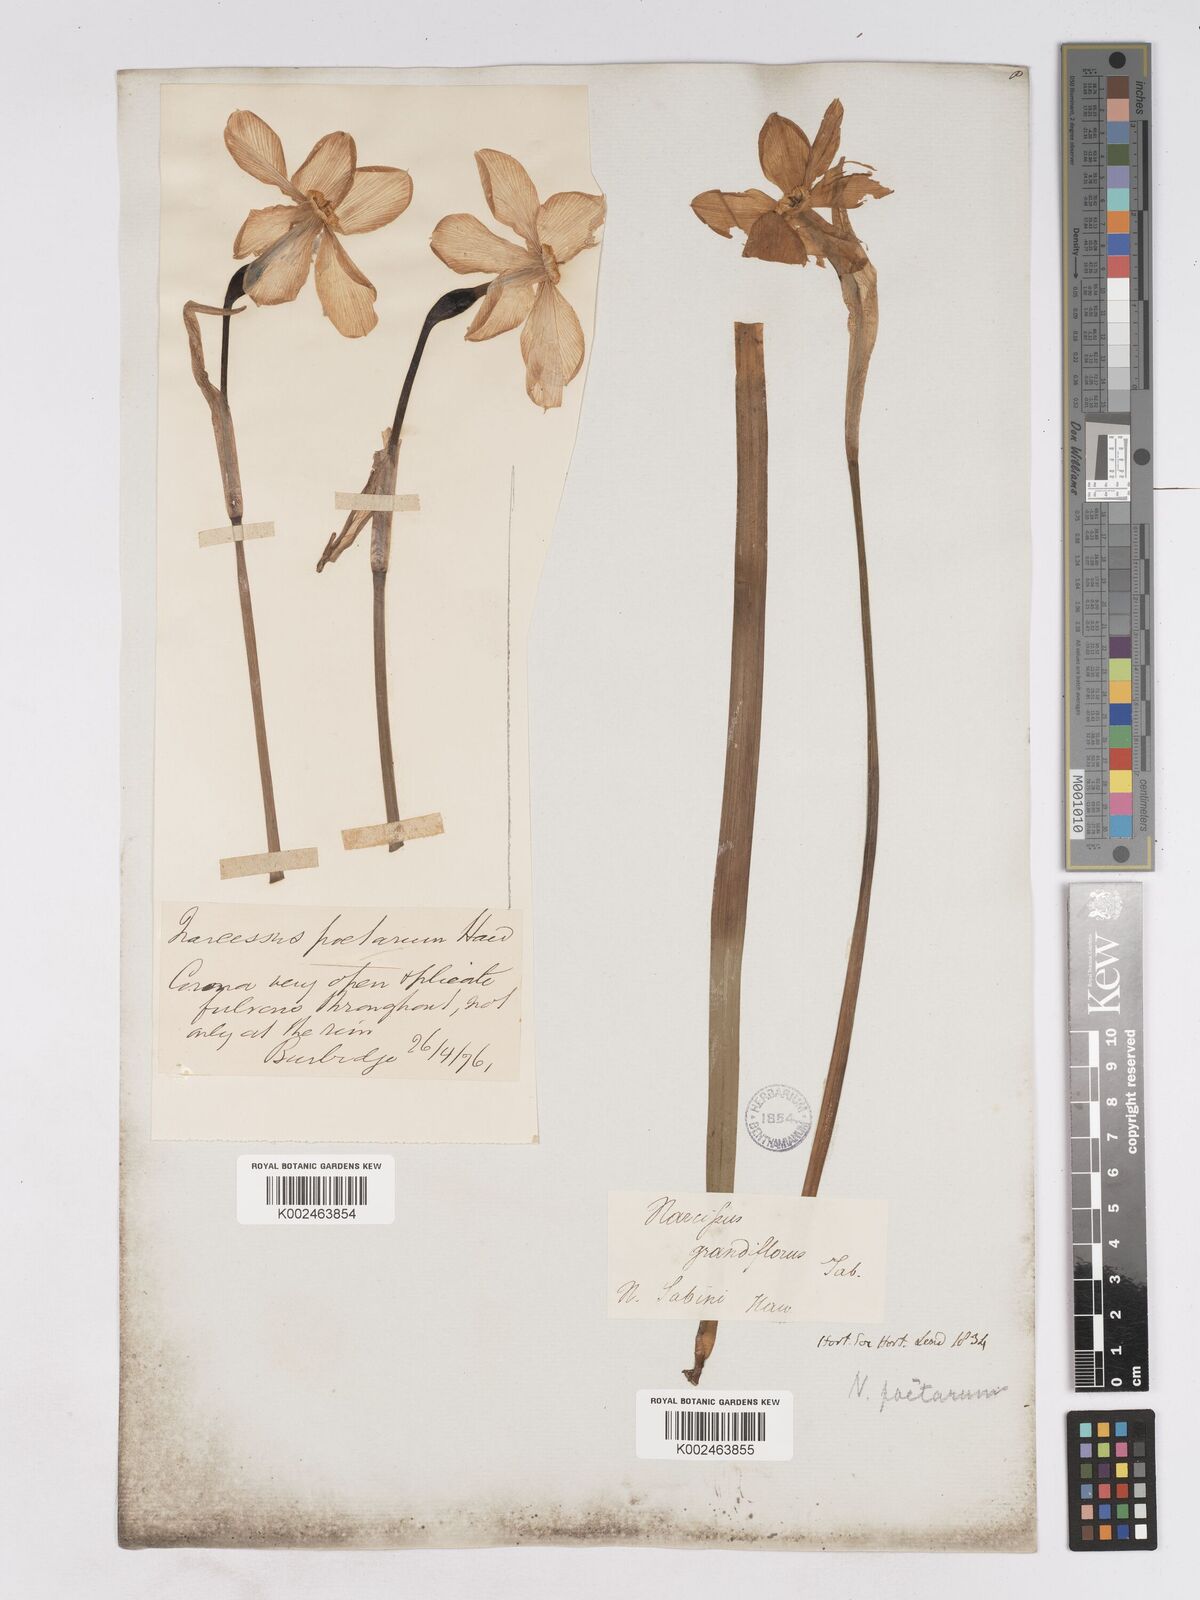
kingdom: Plantae
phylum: Tracheophyta
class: Liliopsida
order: Asparagales
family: Amaryllidaceae
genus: Narcissus
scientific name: Narcissus poeticus
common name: Pheasant's-eye daffodil
